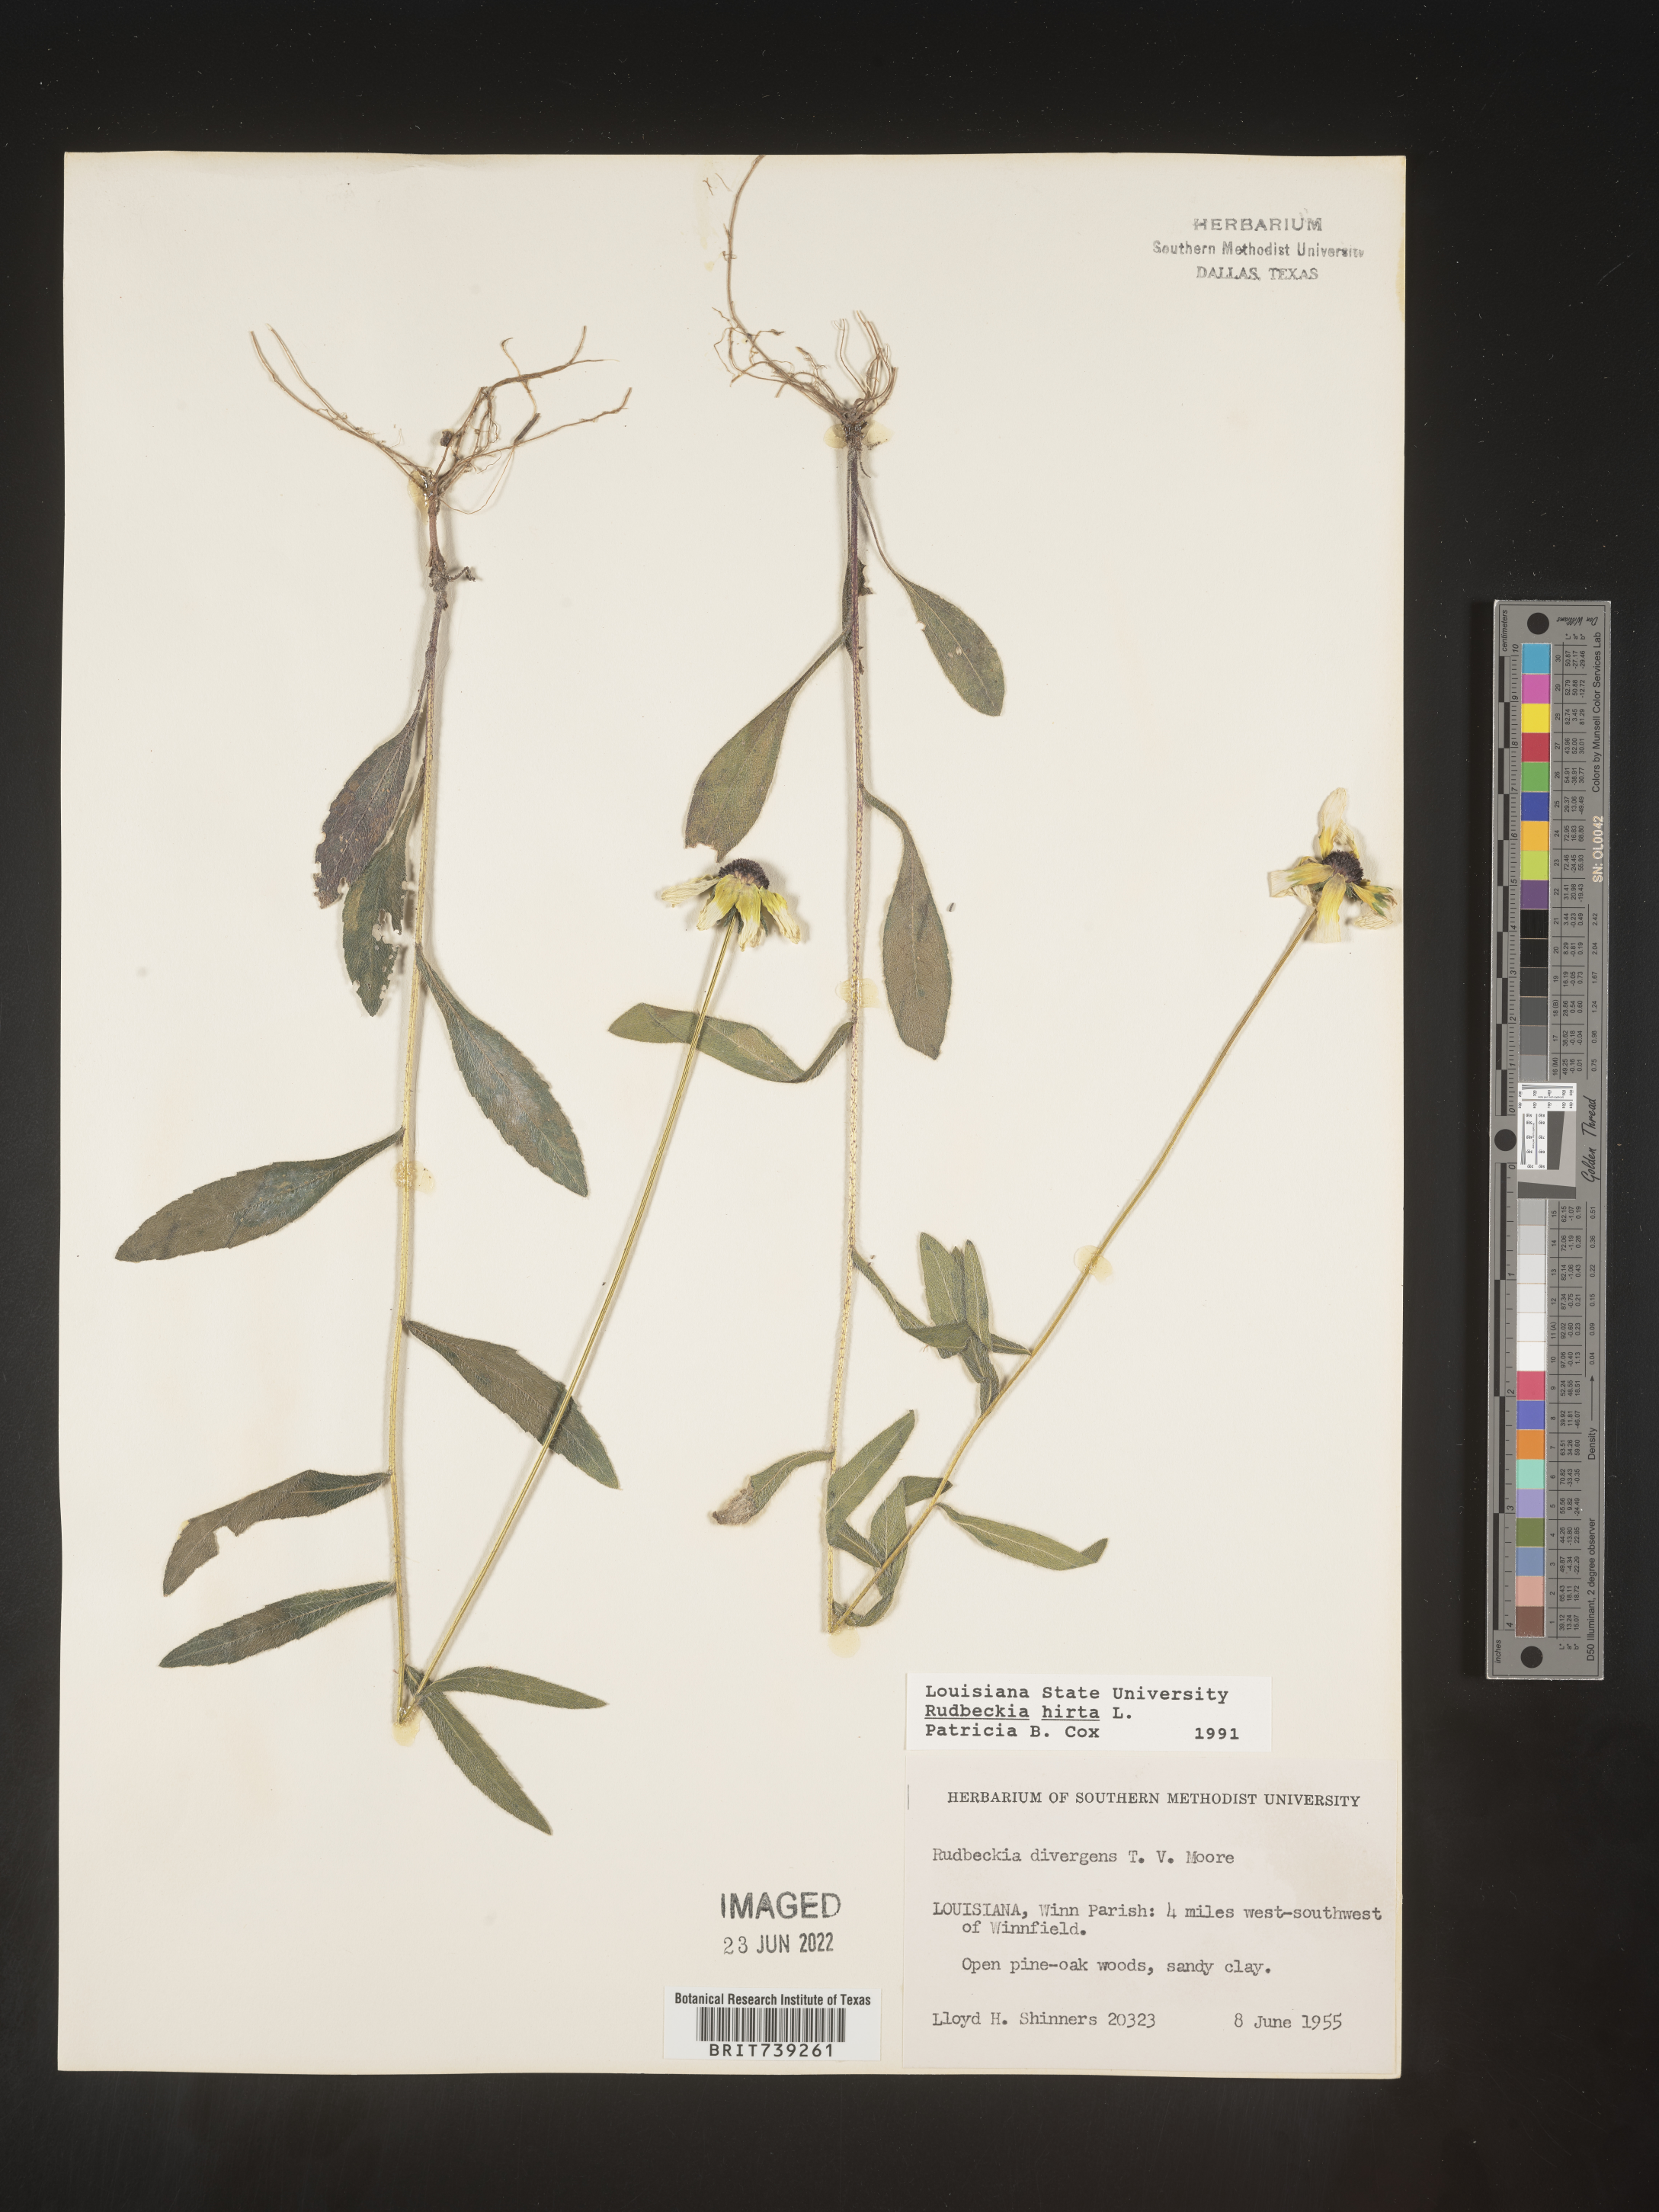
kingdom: Plantae
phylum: Tracheophyta
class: Magnoliopsida
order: Asterales
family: Asteraceae
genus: Rudbeckia
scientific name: Rudbeckia hirta
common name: Black-eyed-susan
